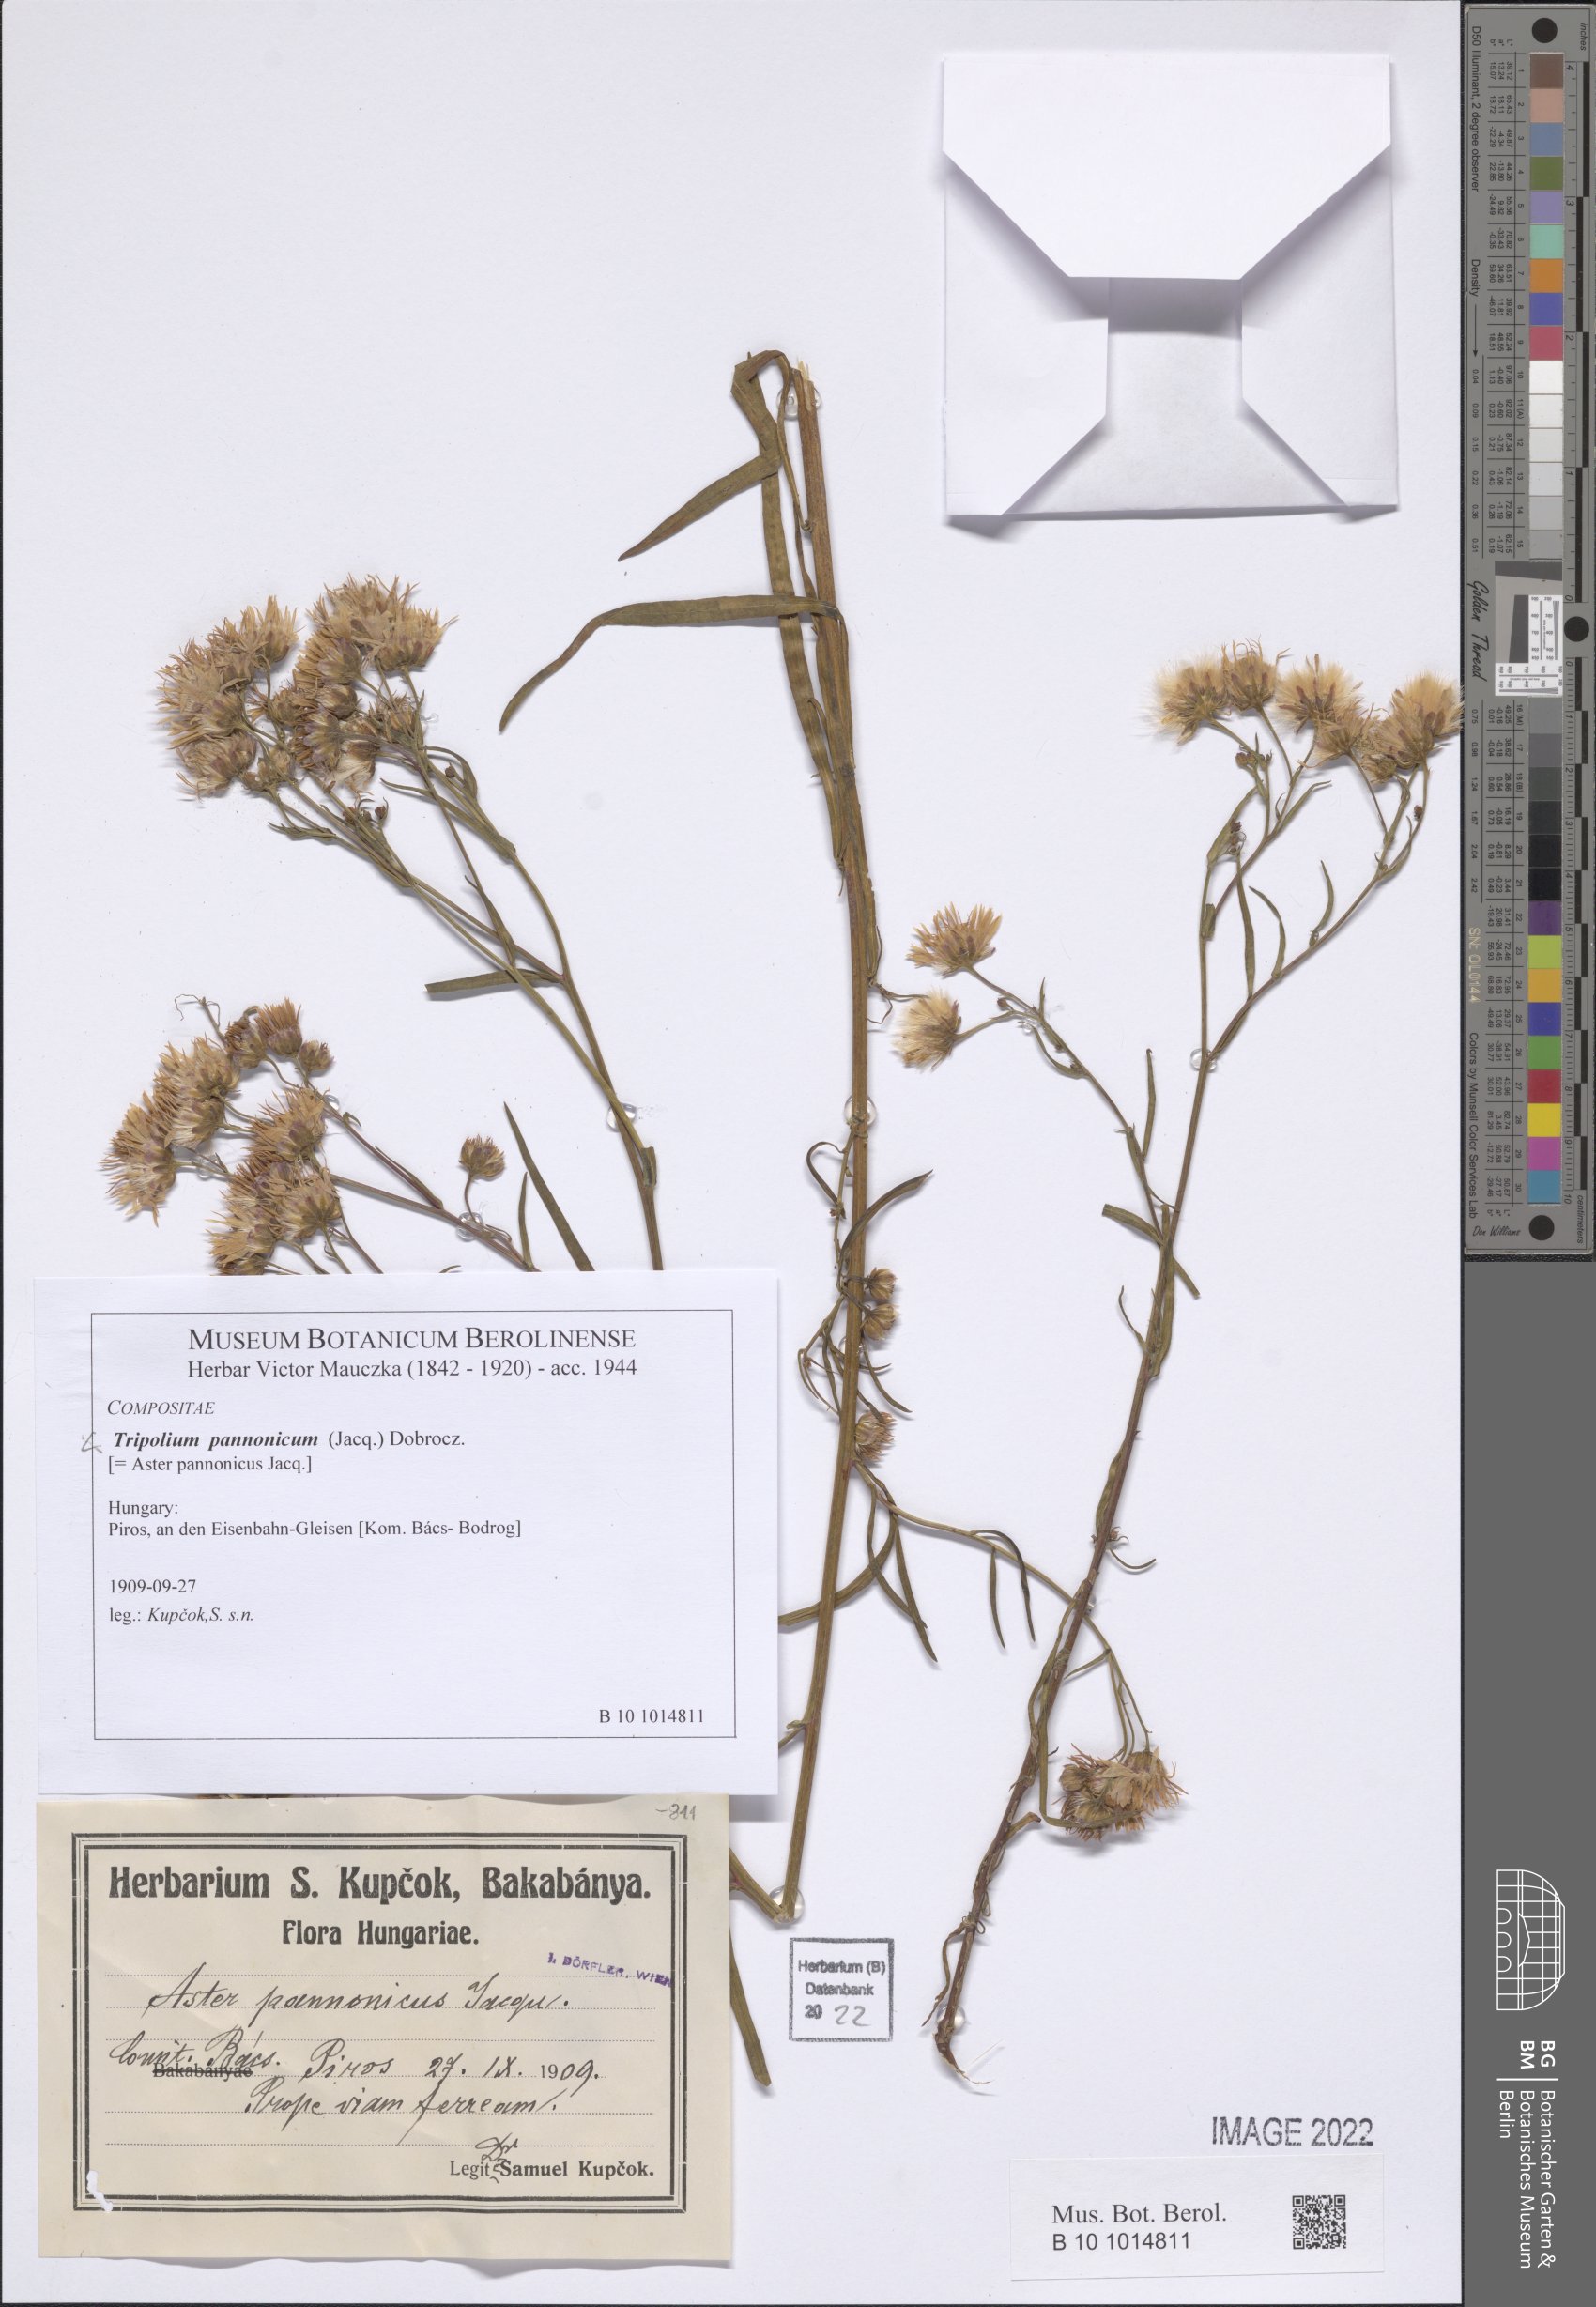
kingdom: Plantae
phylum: Tracheophyta
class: Magnoliopsida
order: Asterales
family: Asteraceae
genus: Tripolium
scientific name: Tripolium pannonicum
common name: Sea aster
